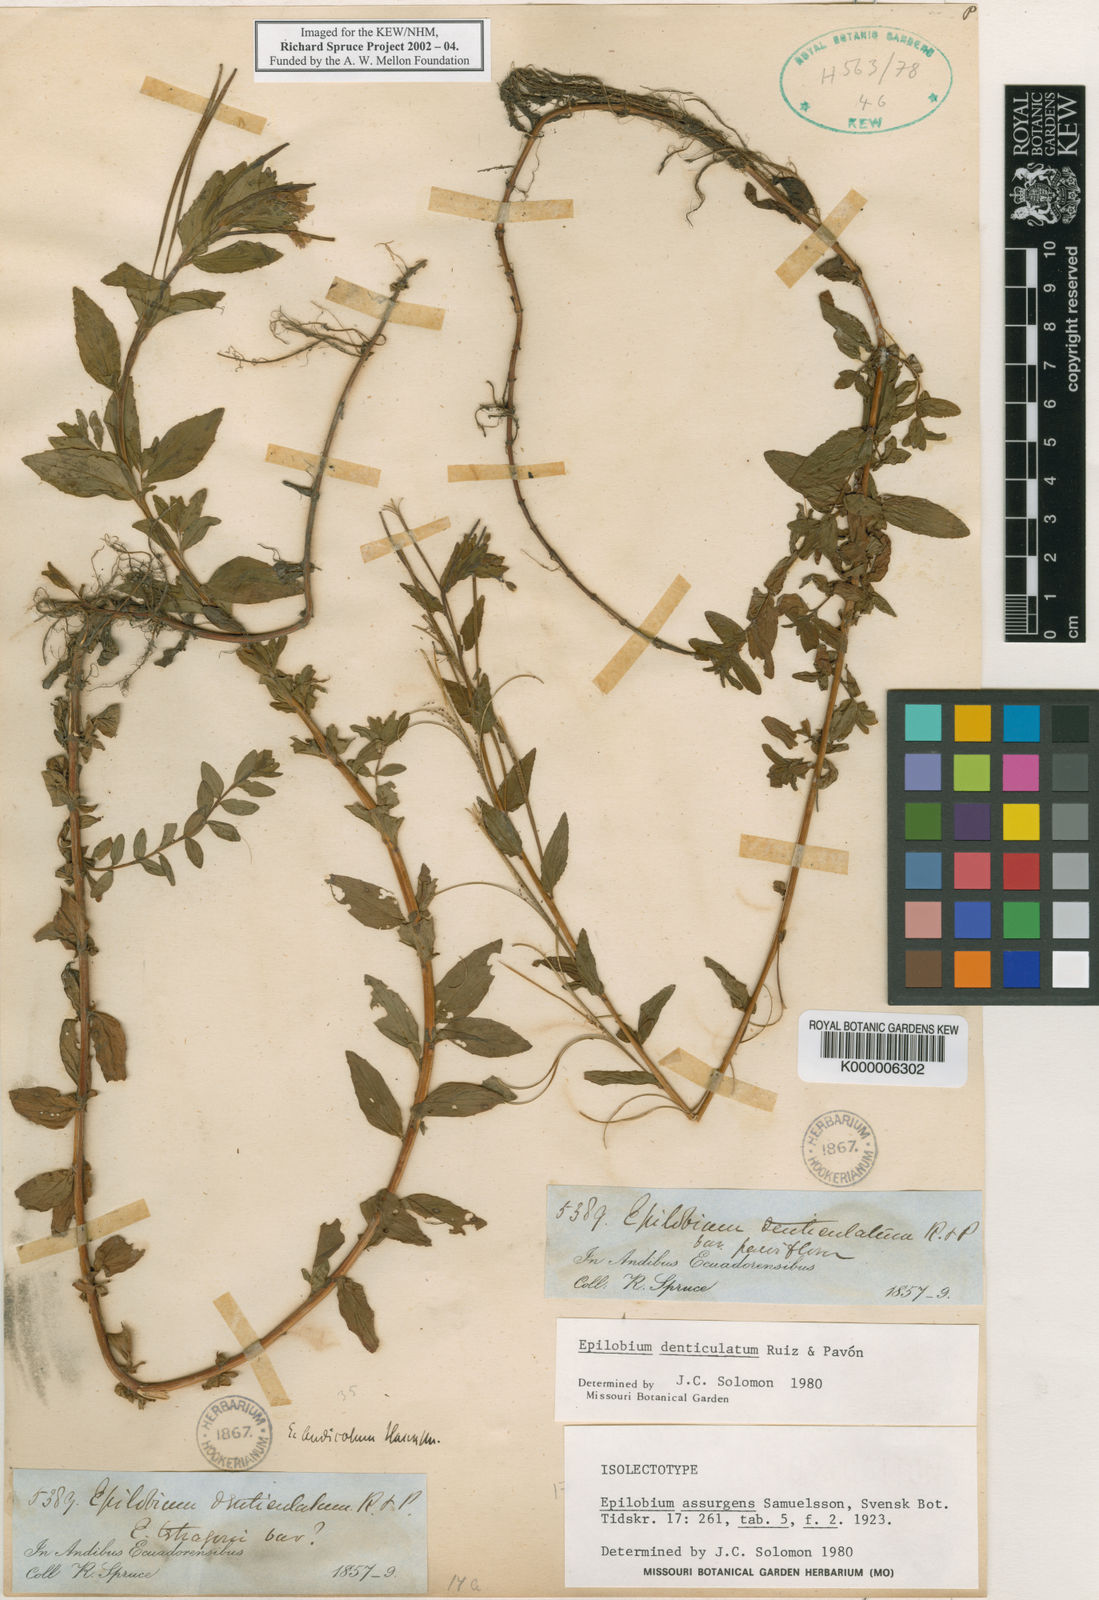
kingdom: Plantae
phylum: Tracheophyta
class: Magnoliopsida
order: Myrtales
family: Onagraceae
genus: Epilobium
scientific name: Epilobium denticulatum
